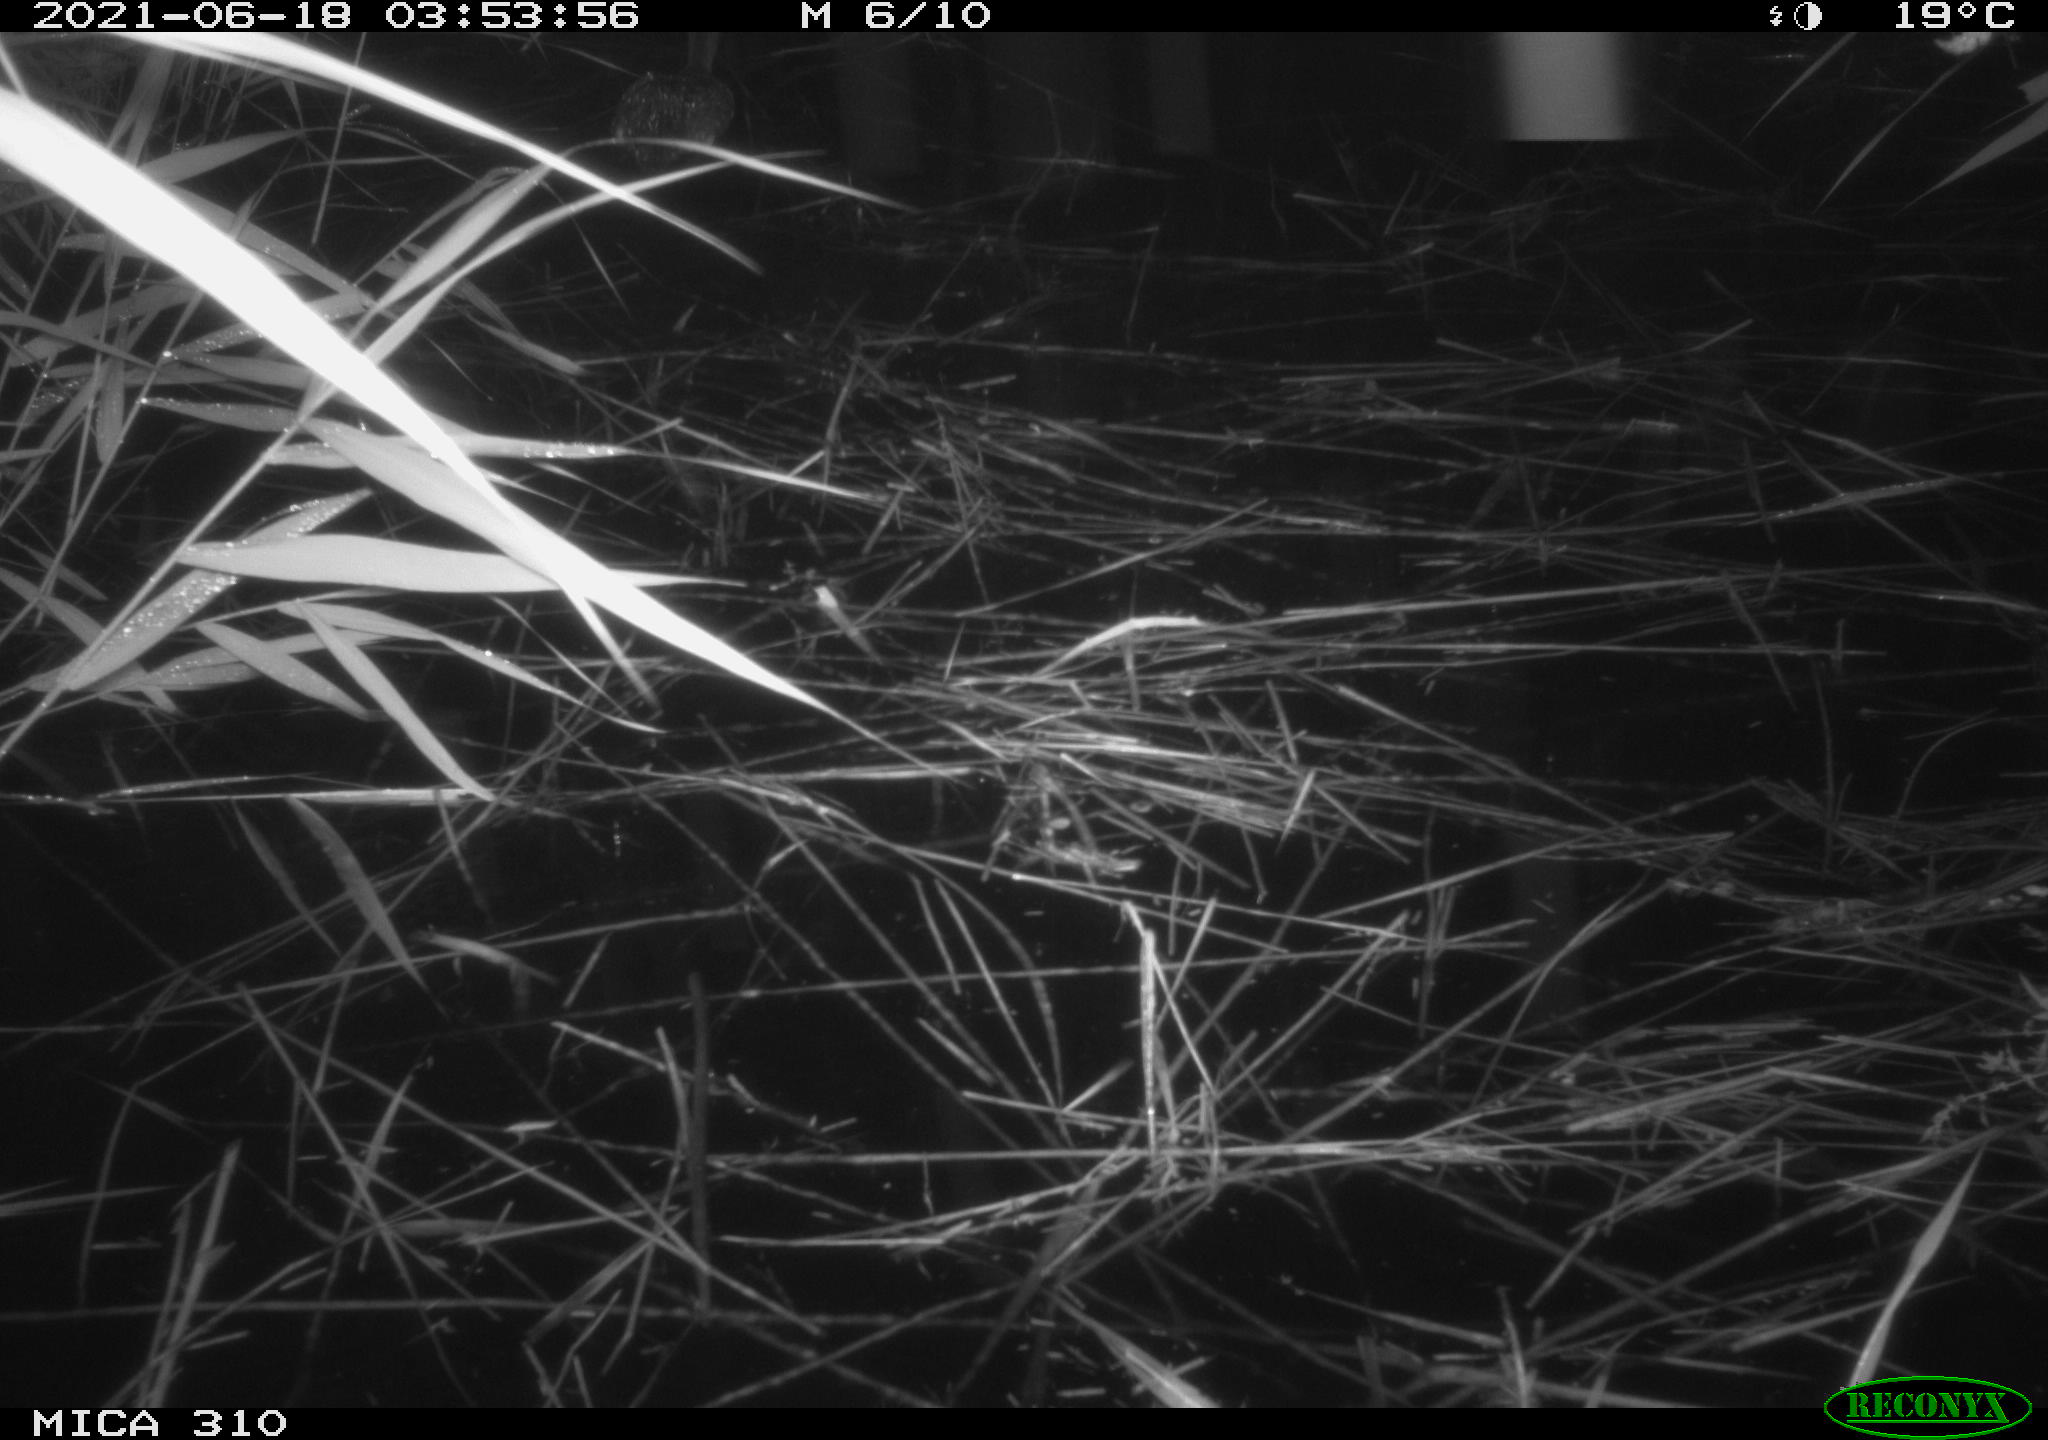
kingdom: Animalia
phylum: Chordata
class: Aves
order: Anseriformes
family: Anatidae
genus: Anas
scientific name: Anas
